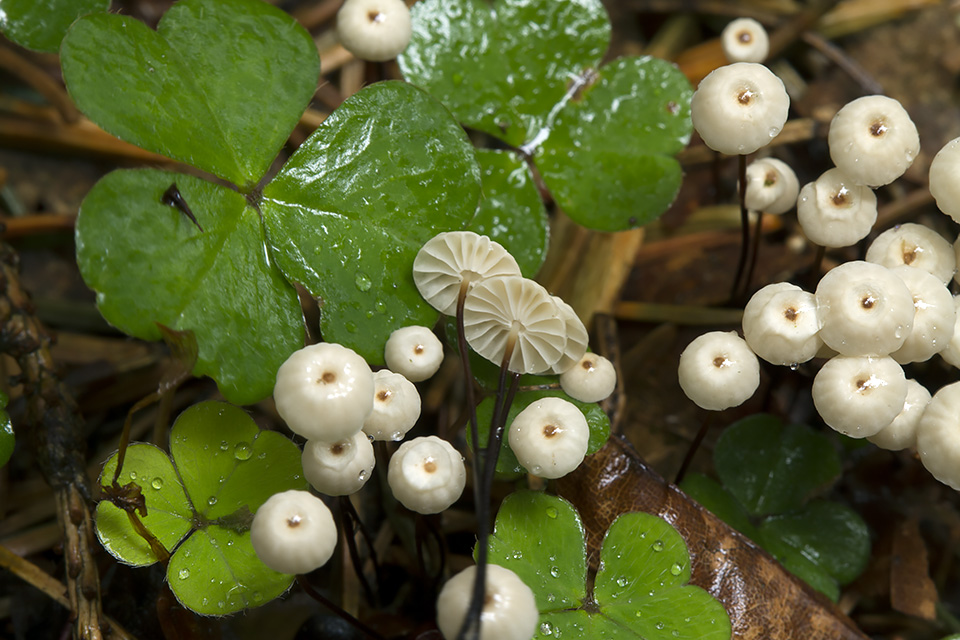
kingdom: Fungi
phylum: Basidiomycota
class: Agaricomycetes
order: Agaricales
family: Marasmiaceae
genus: Marasmius
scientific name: Marasmius wettsteinii
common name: Wettsteins bruskhat
